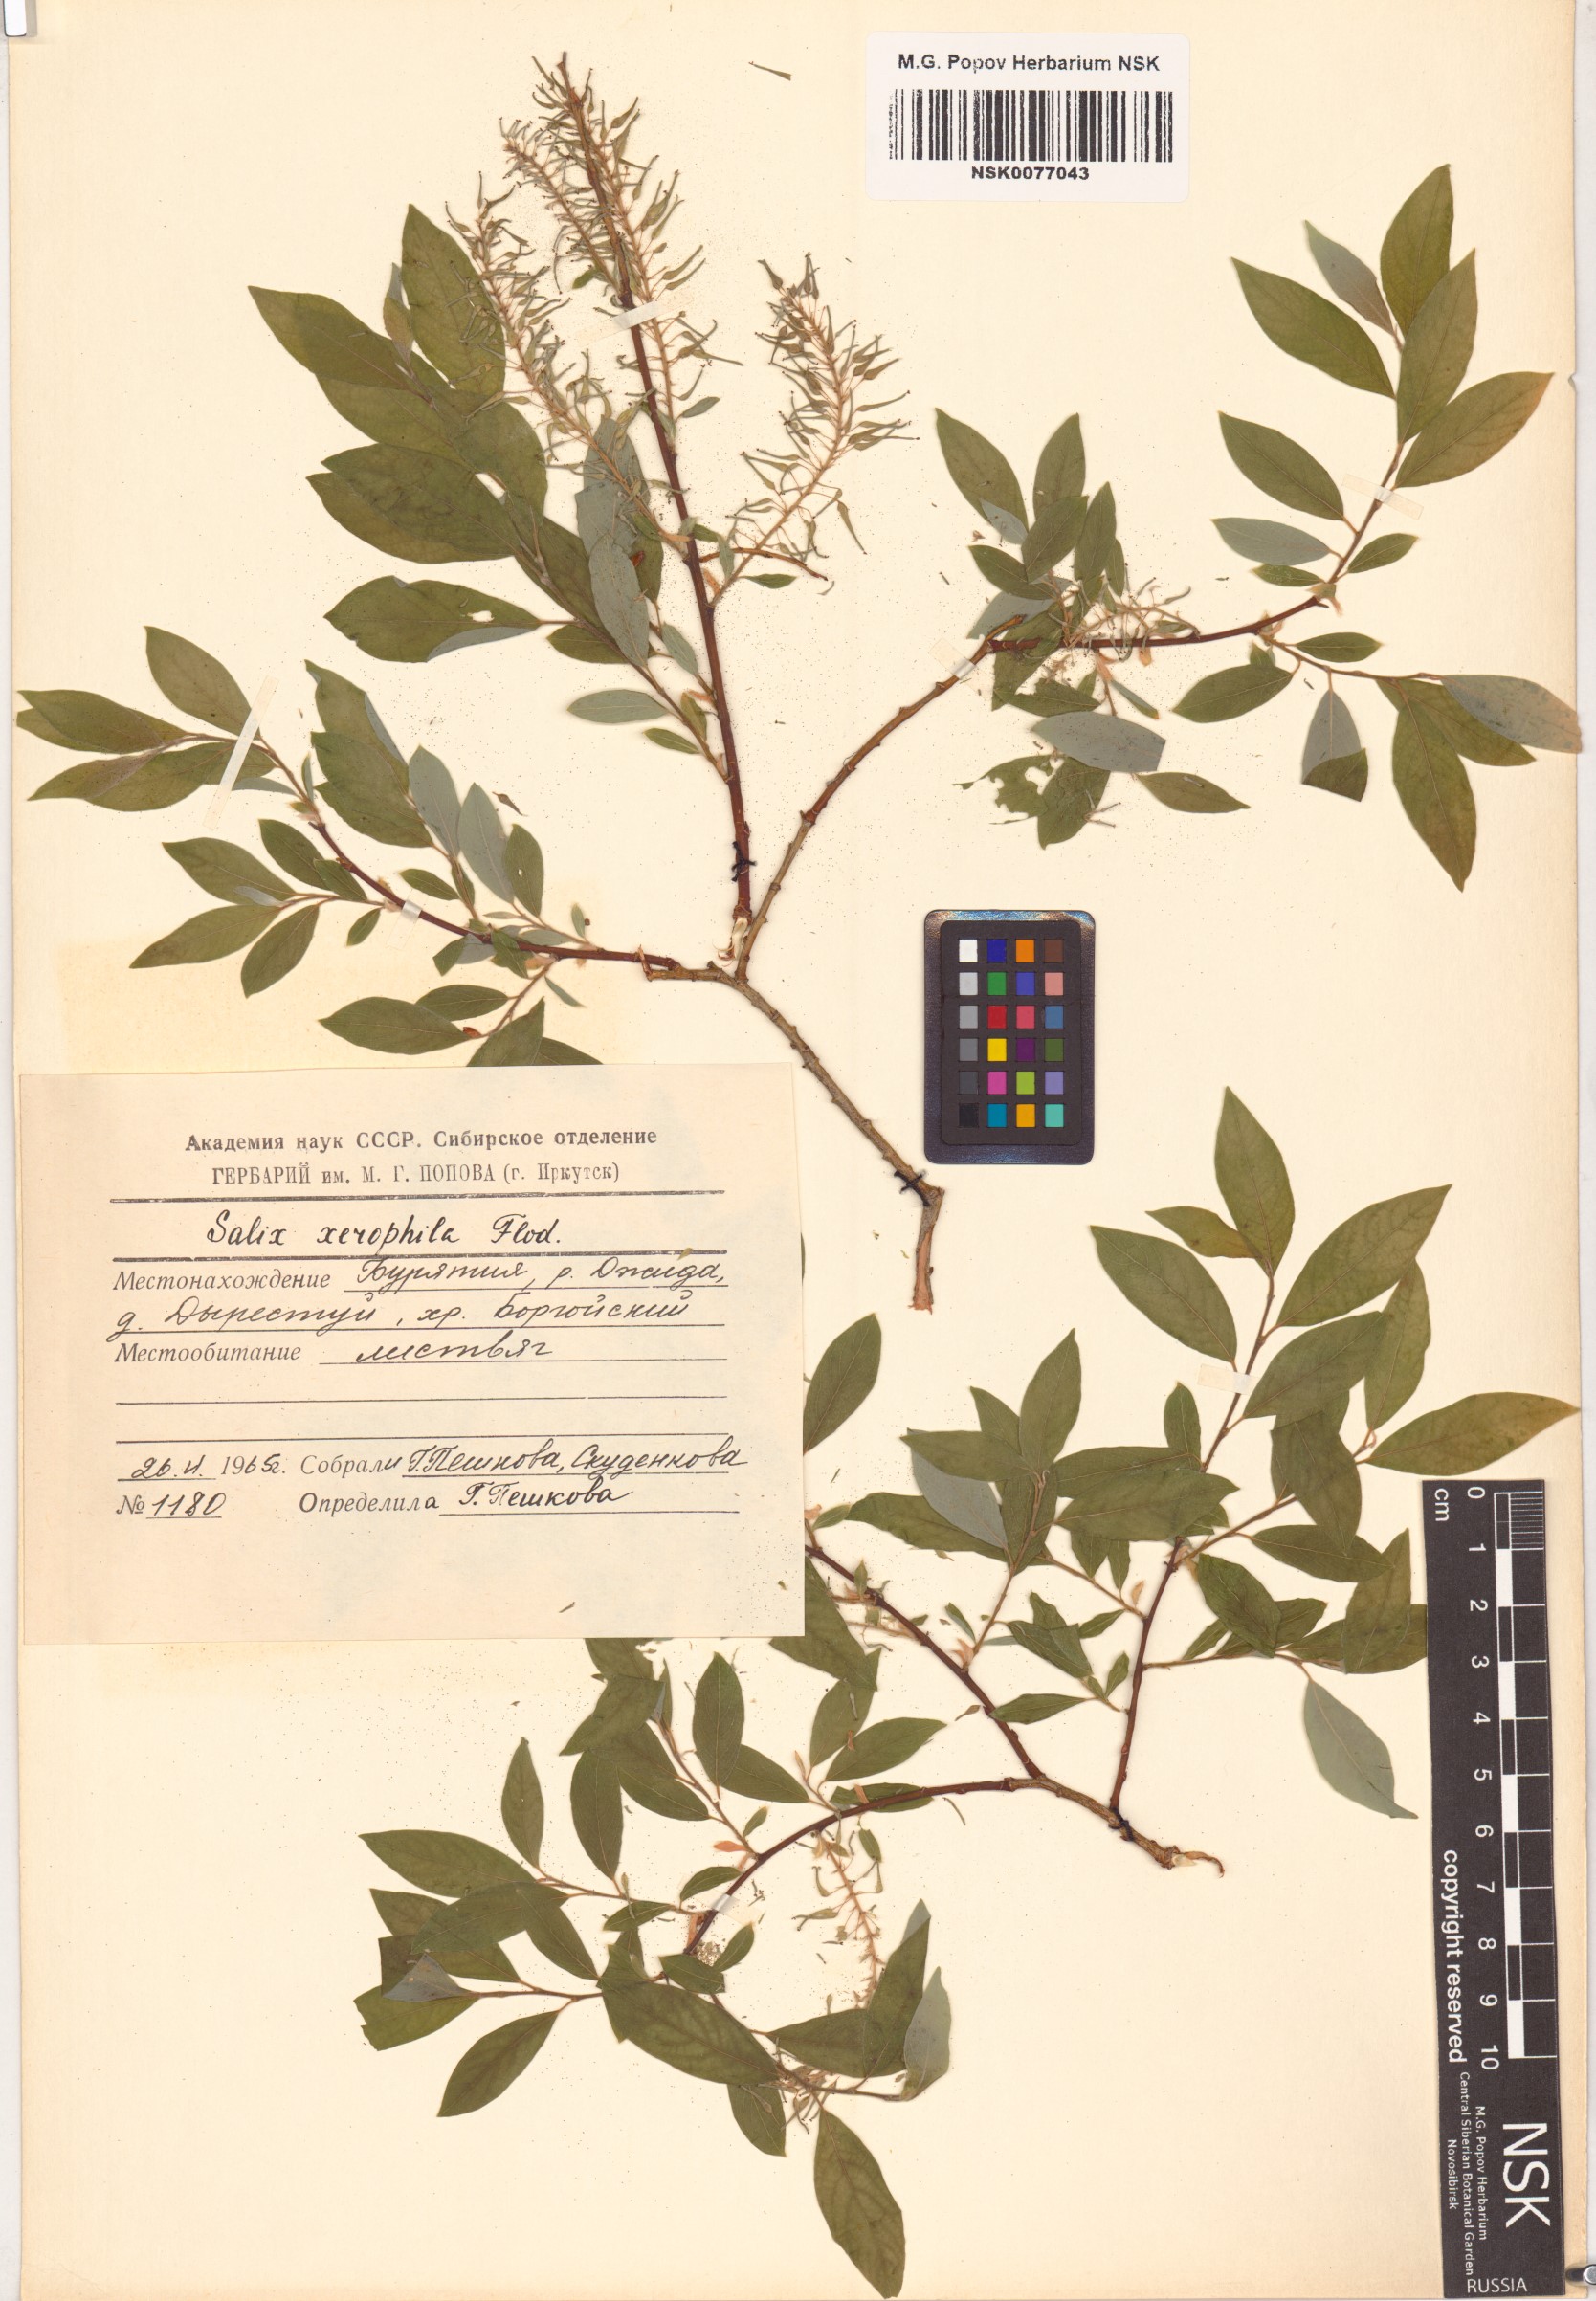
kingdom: Plantae
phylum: Tracheophyta
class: Magnoliopsida
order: Malpighiales
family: Salicaceae
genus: Salix
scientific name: Salix bebbiana
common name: Bebb's willow
